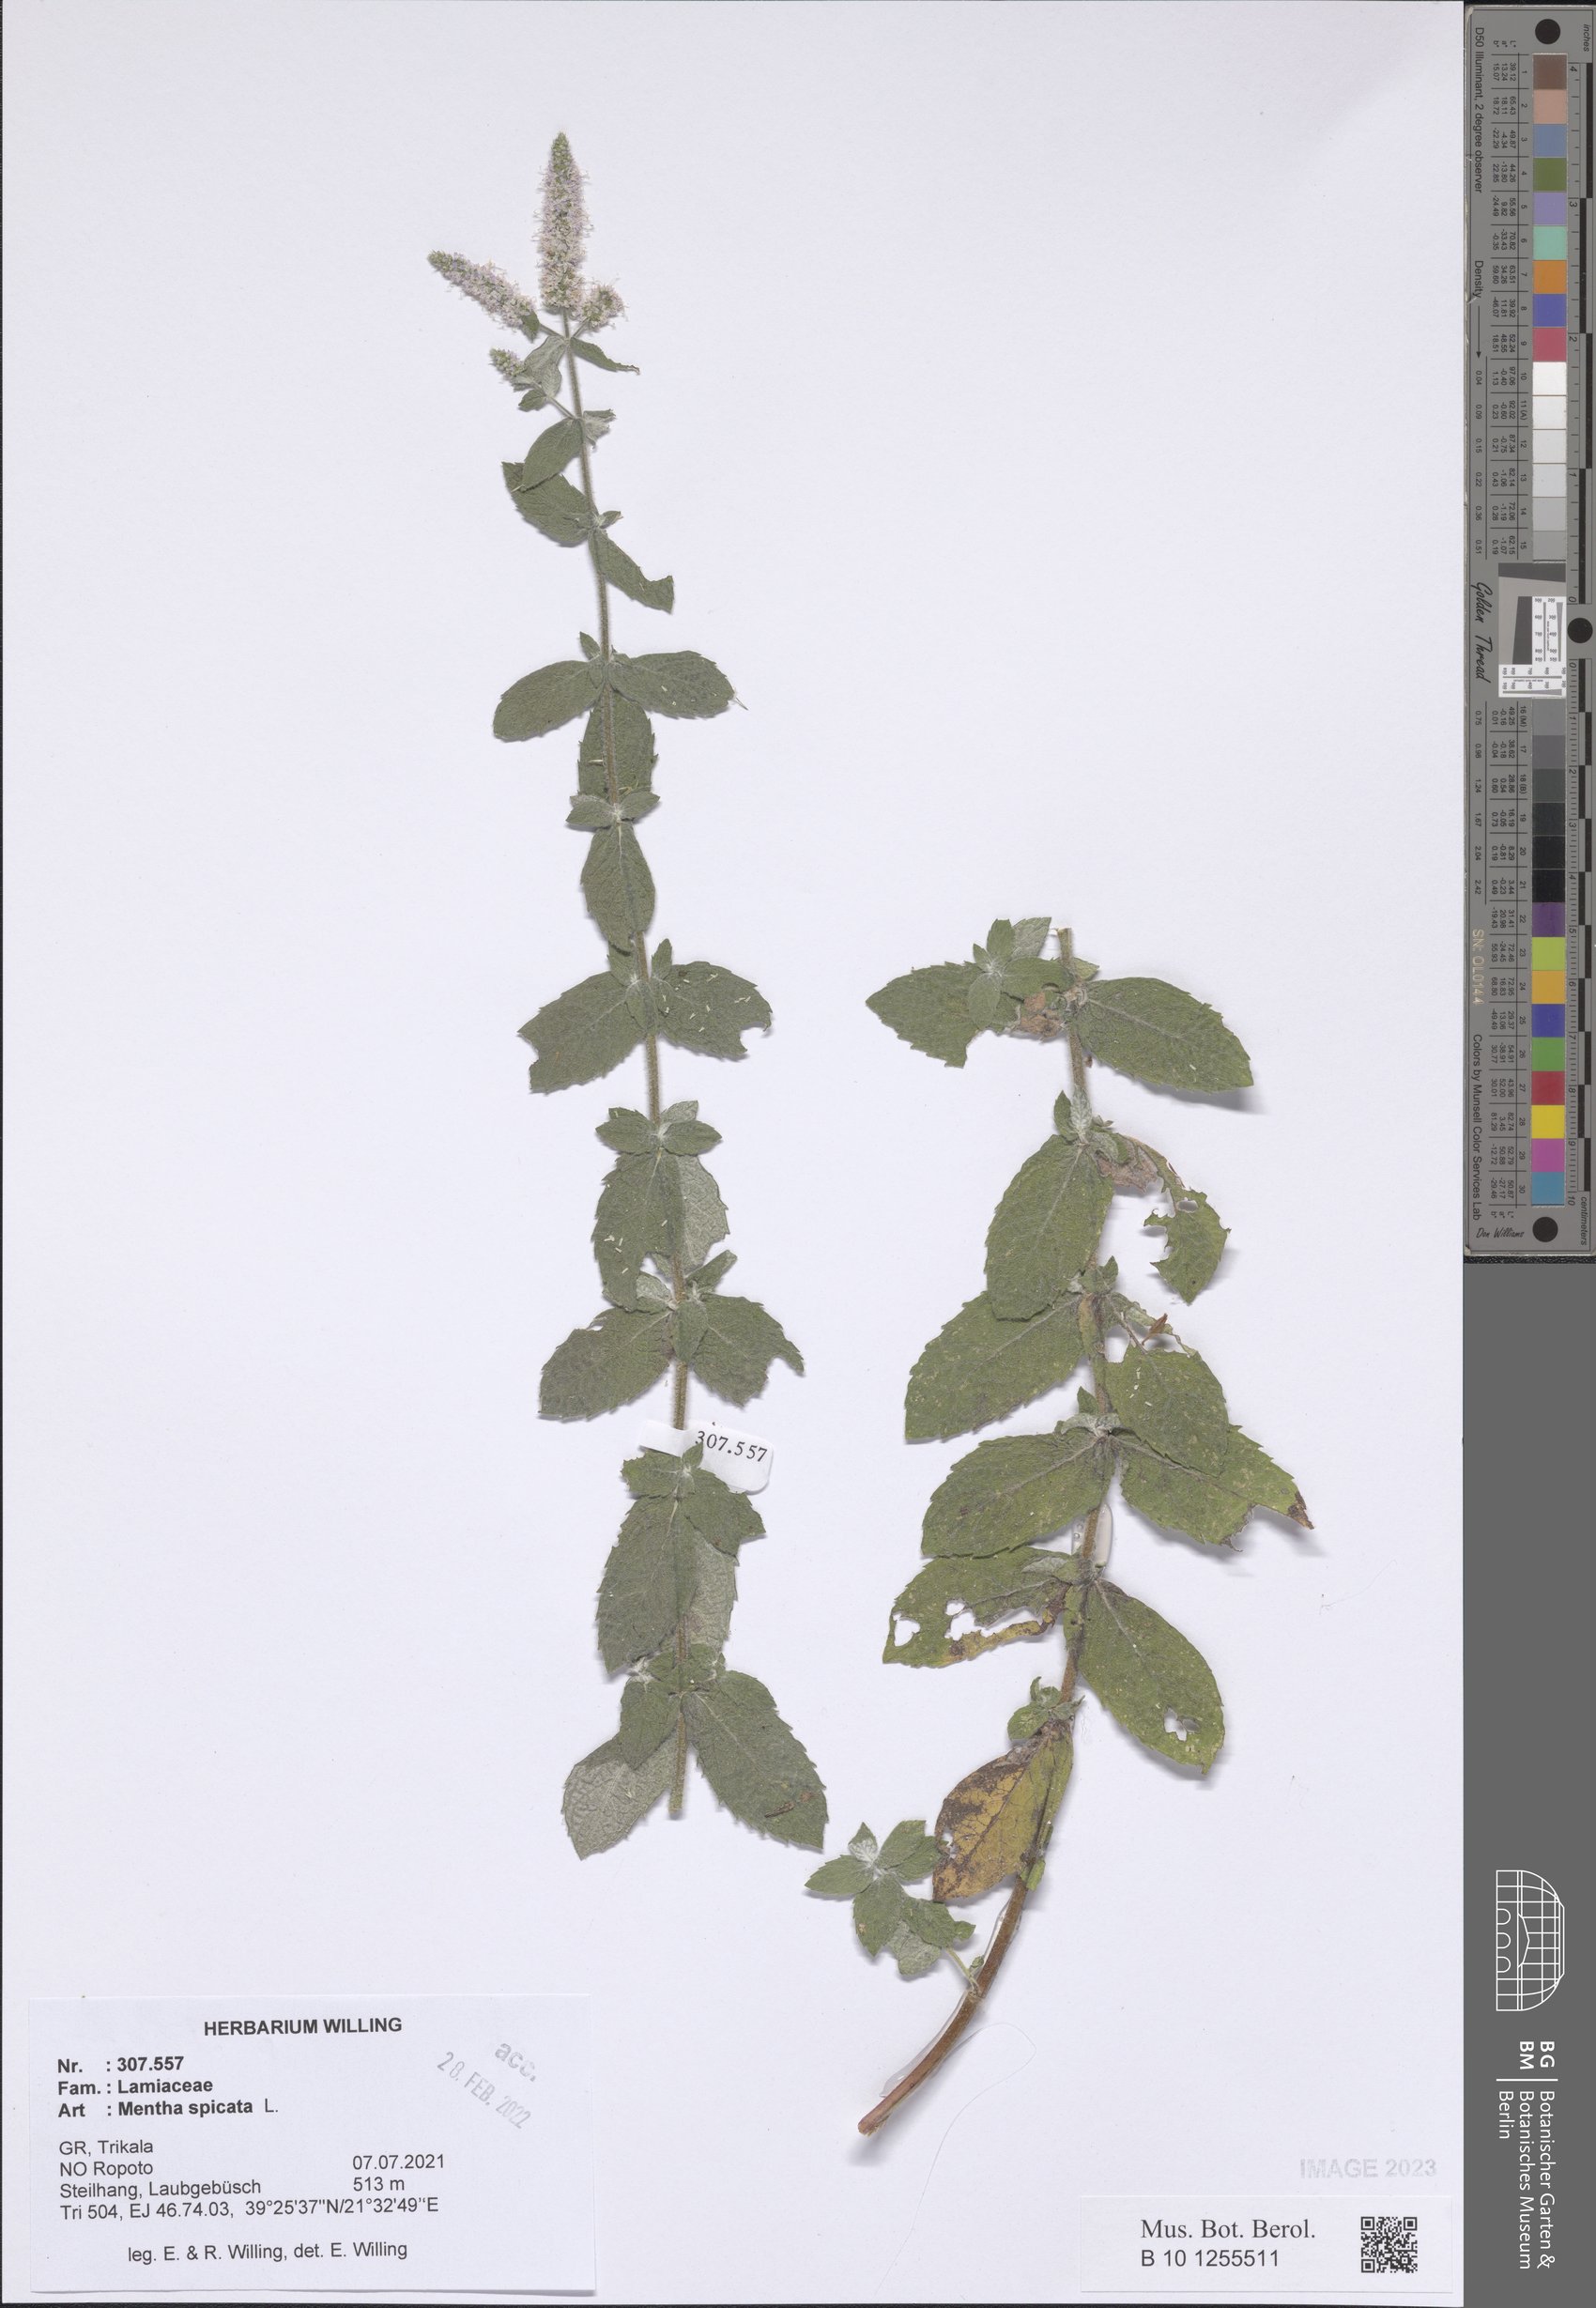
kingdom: Plantae
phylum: Tracheophyta
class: Magnoliopsida
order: Lamiales
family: Lamiaceae
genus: Mentha
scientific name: Mentha spicata
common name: Spearmint
